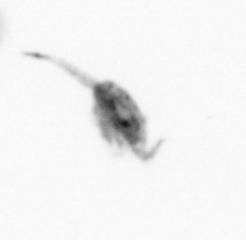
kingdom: Animalia
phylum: Arthropoda
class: Copepoda
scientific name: Copepoda
